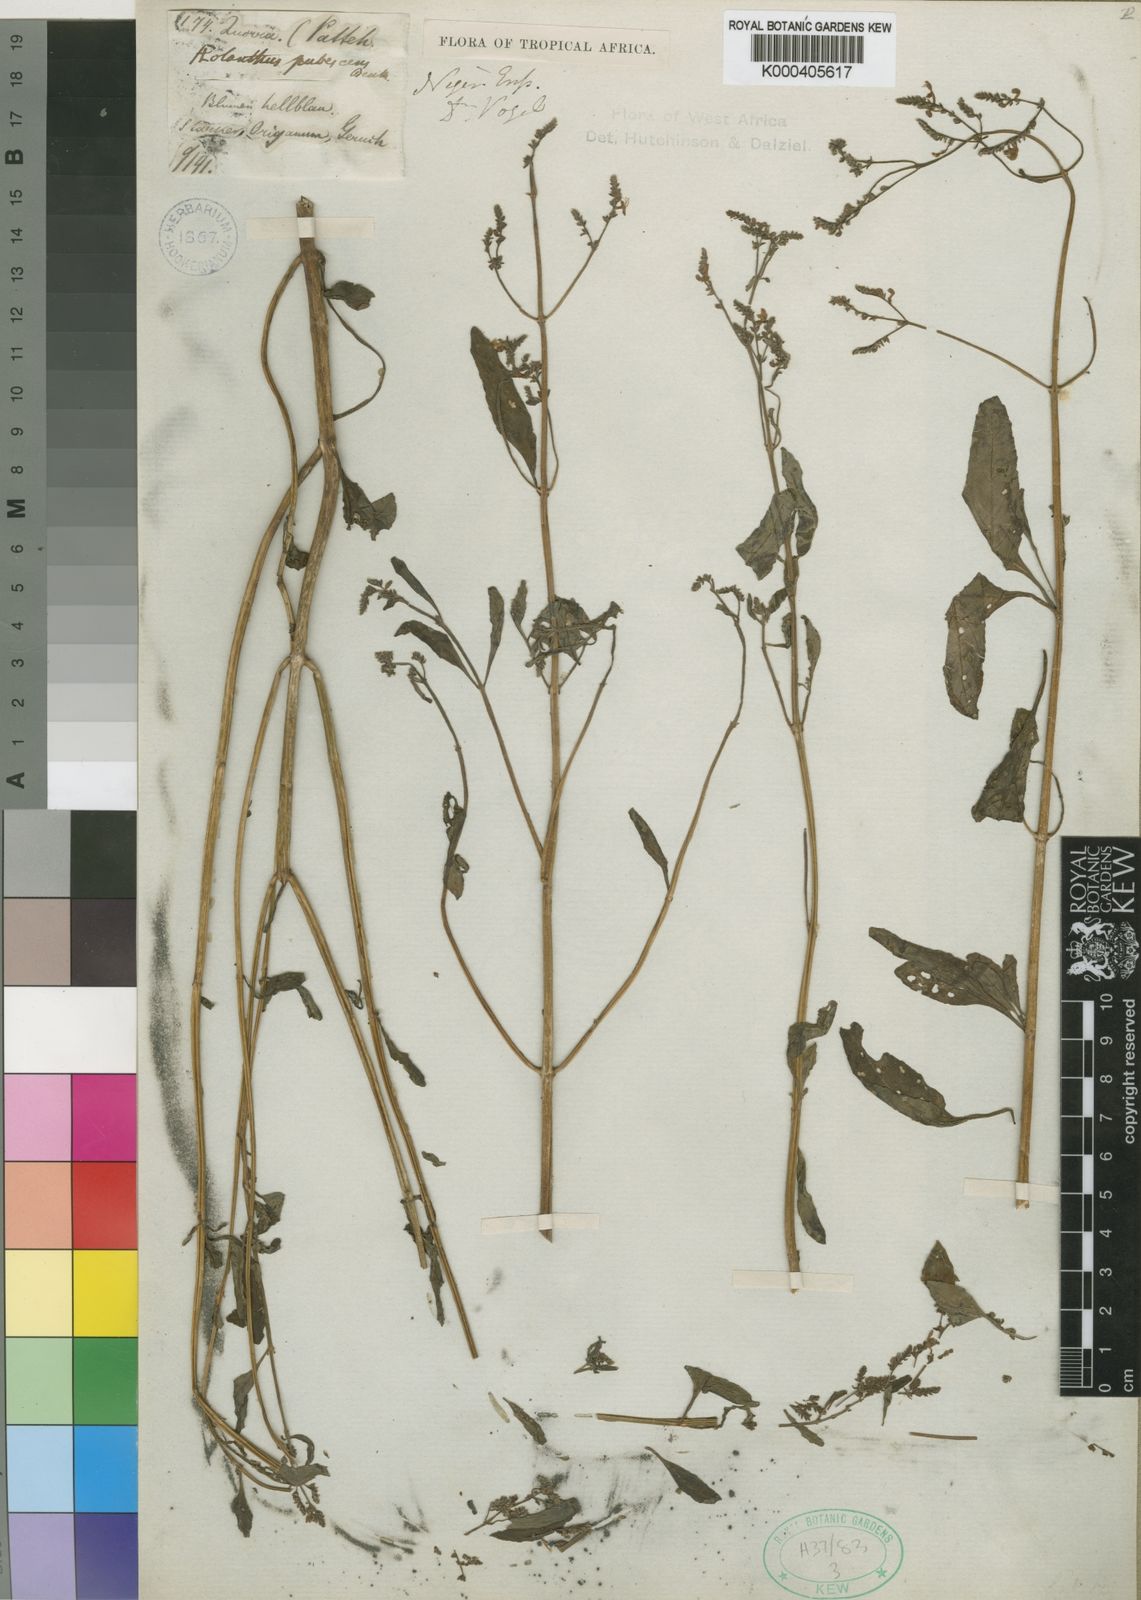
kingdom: Plantae
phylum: Tracheophyta
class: Magnoliopsida
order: Lamiales
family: Lamiaceae
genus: Aeollanthus
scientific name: Aeollanthus pubescens
